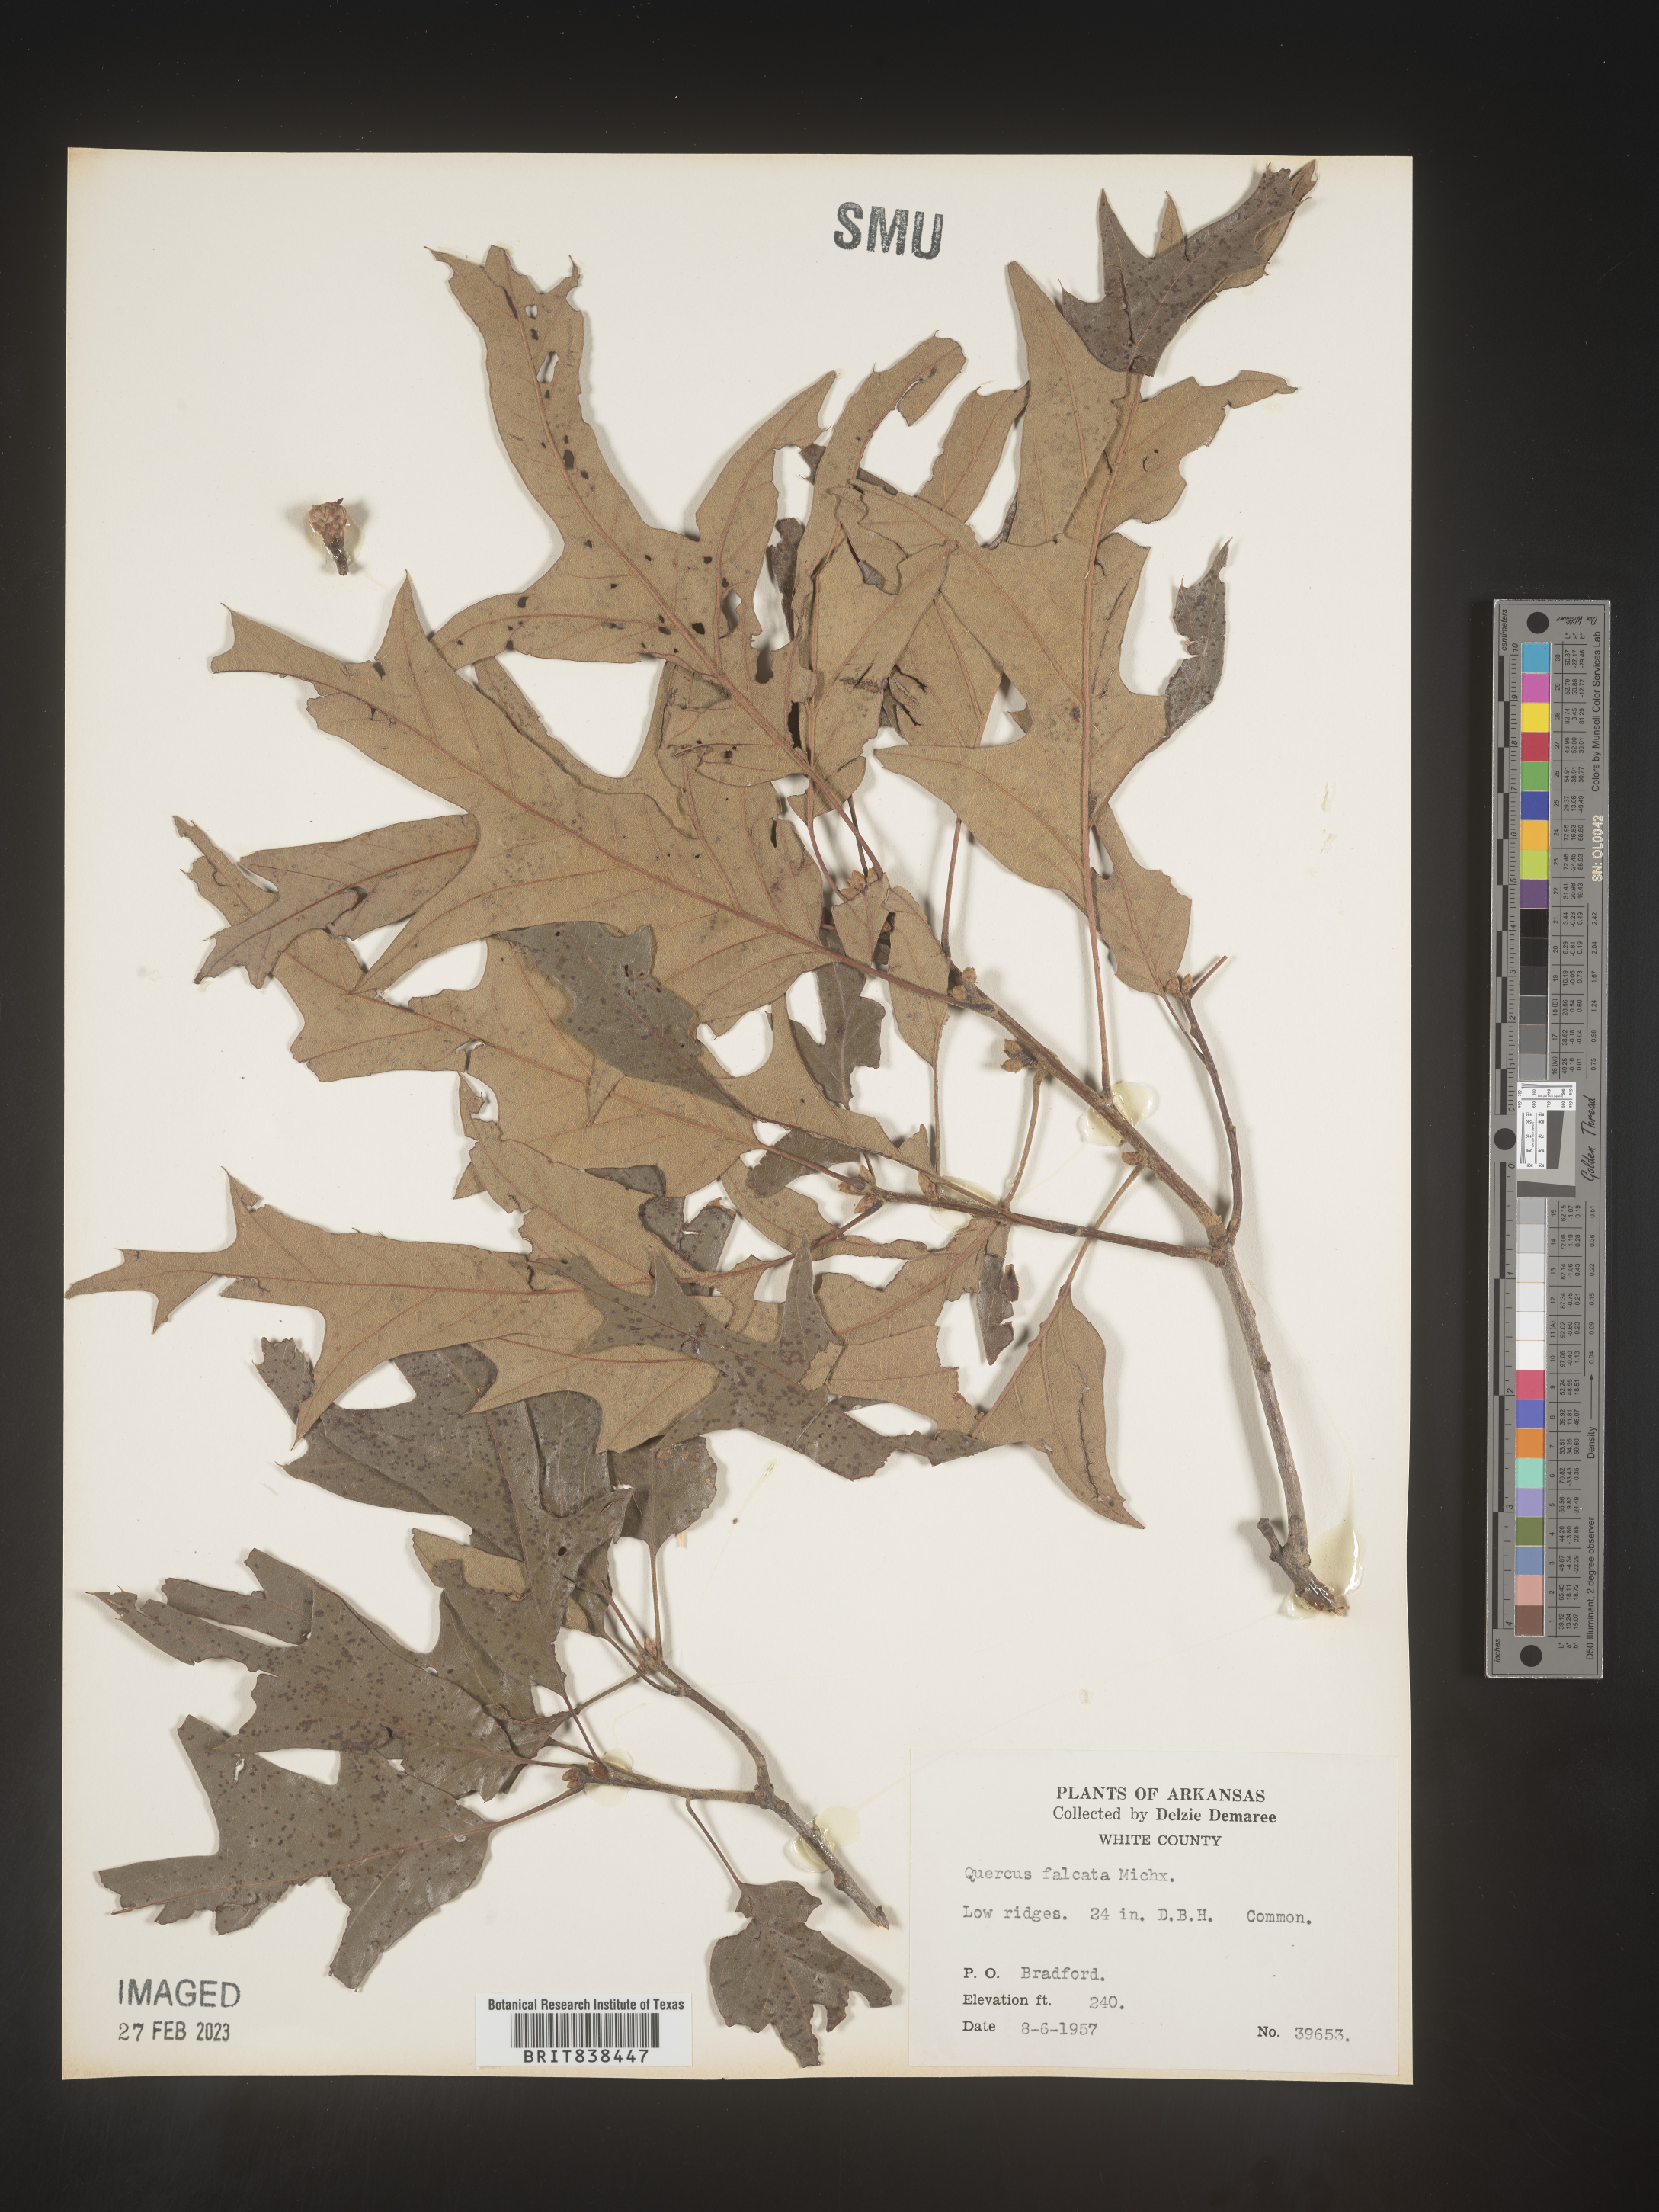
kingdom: Plantae
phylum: Tracheophyta
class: Magnoliopsida
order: Fagales
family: Fagaceae
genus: Quercus
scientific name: Quercus falcata
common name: Southern red oak
